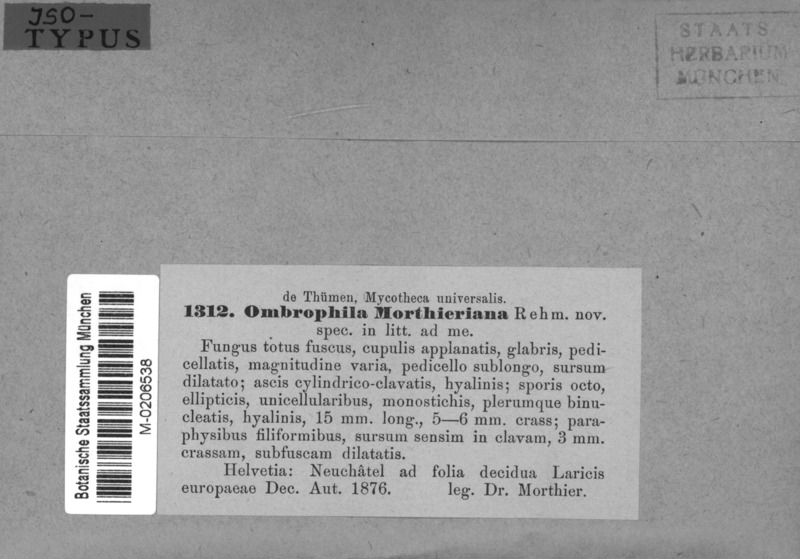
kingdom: Fungi
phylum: Ascomycota
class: Leotiomycetes
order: Helotiales
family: Gelatinodiscaceae
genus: Ombrophila
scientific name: Ombrophila morthieriana
